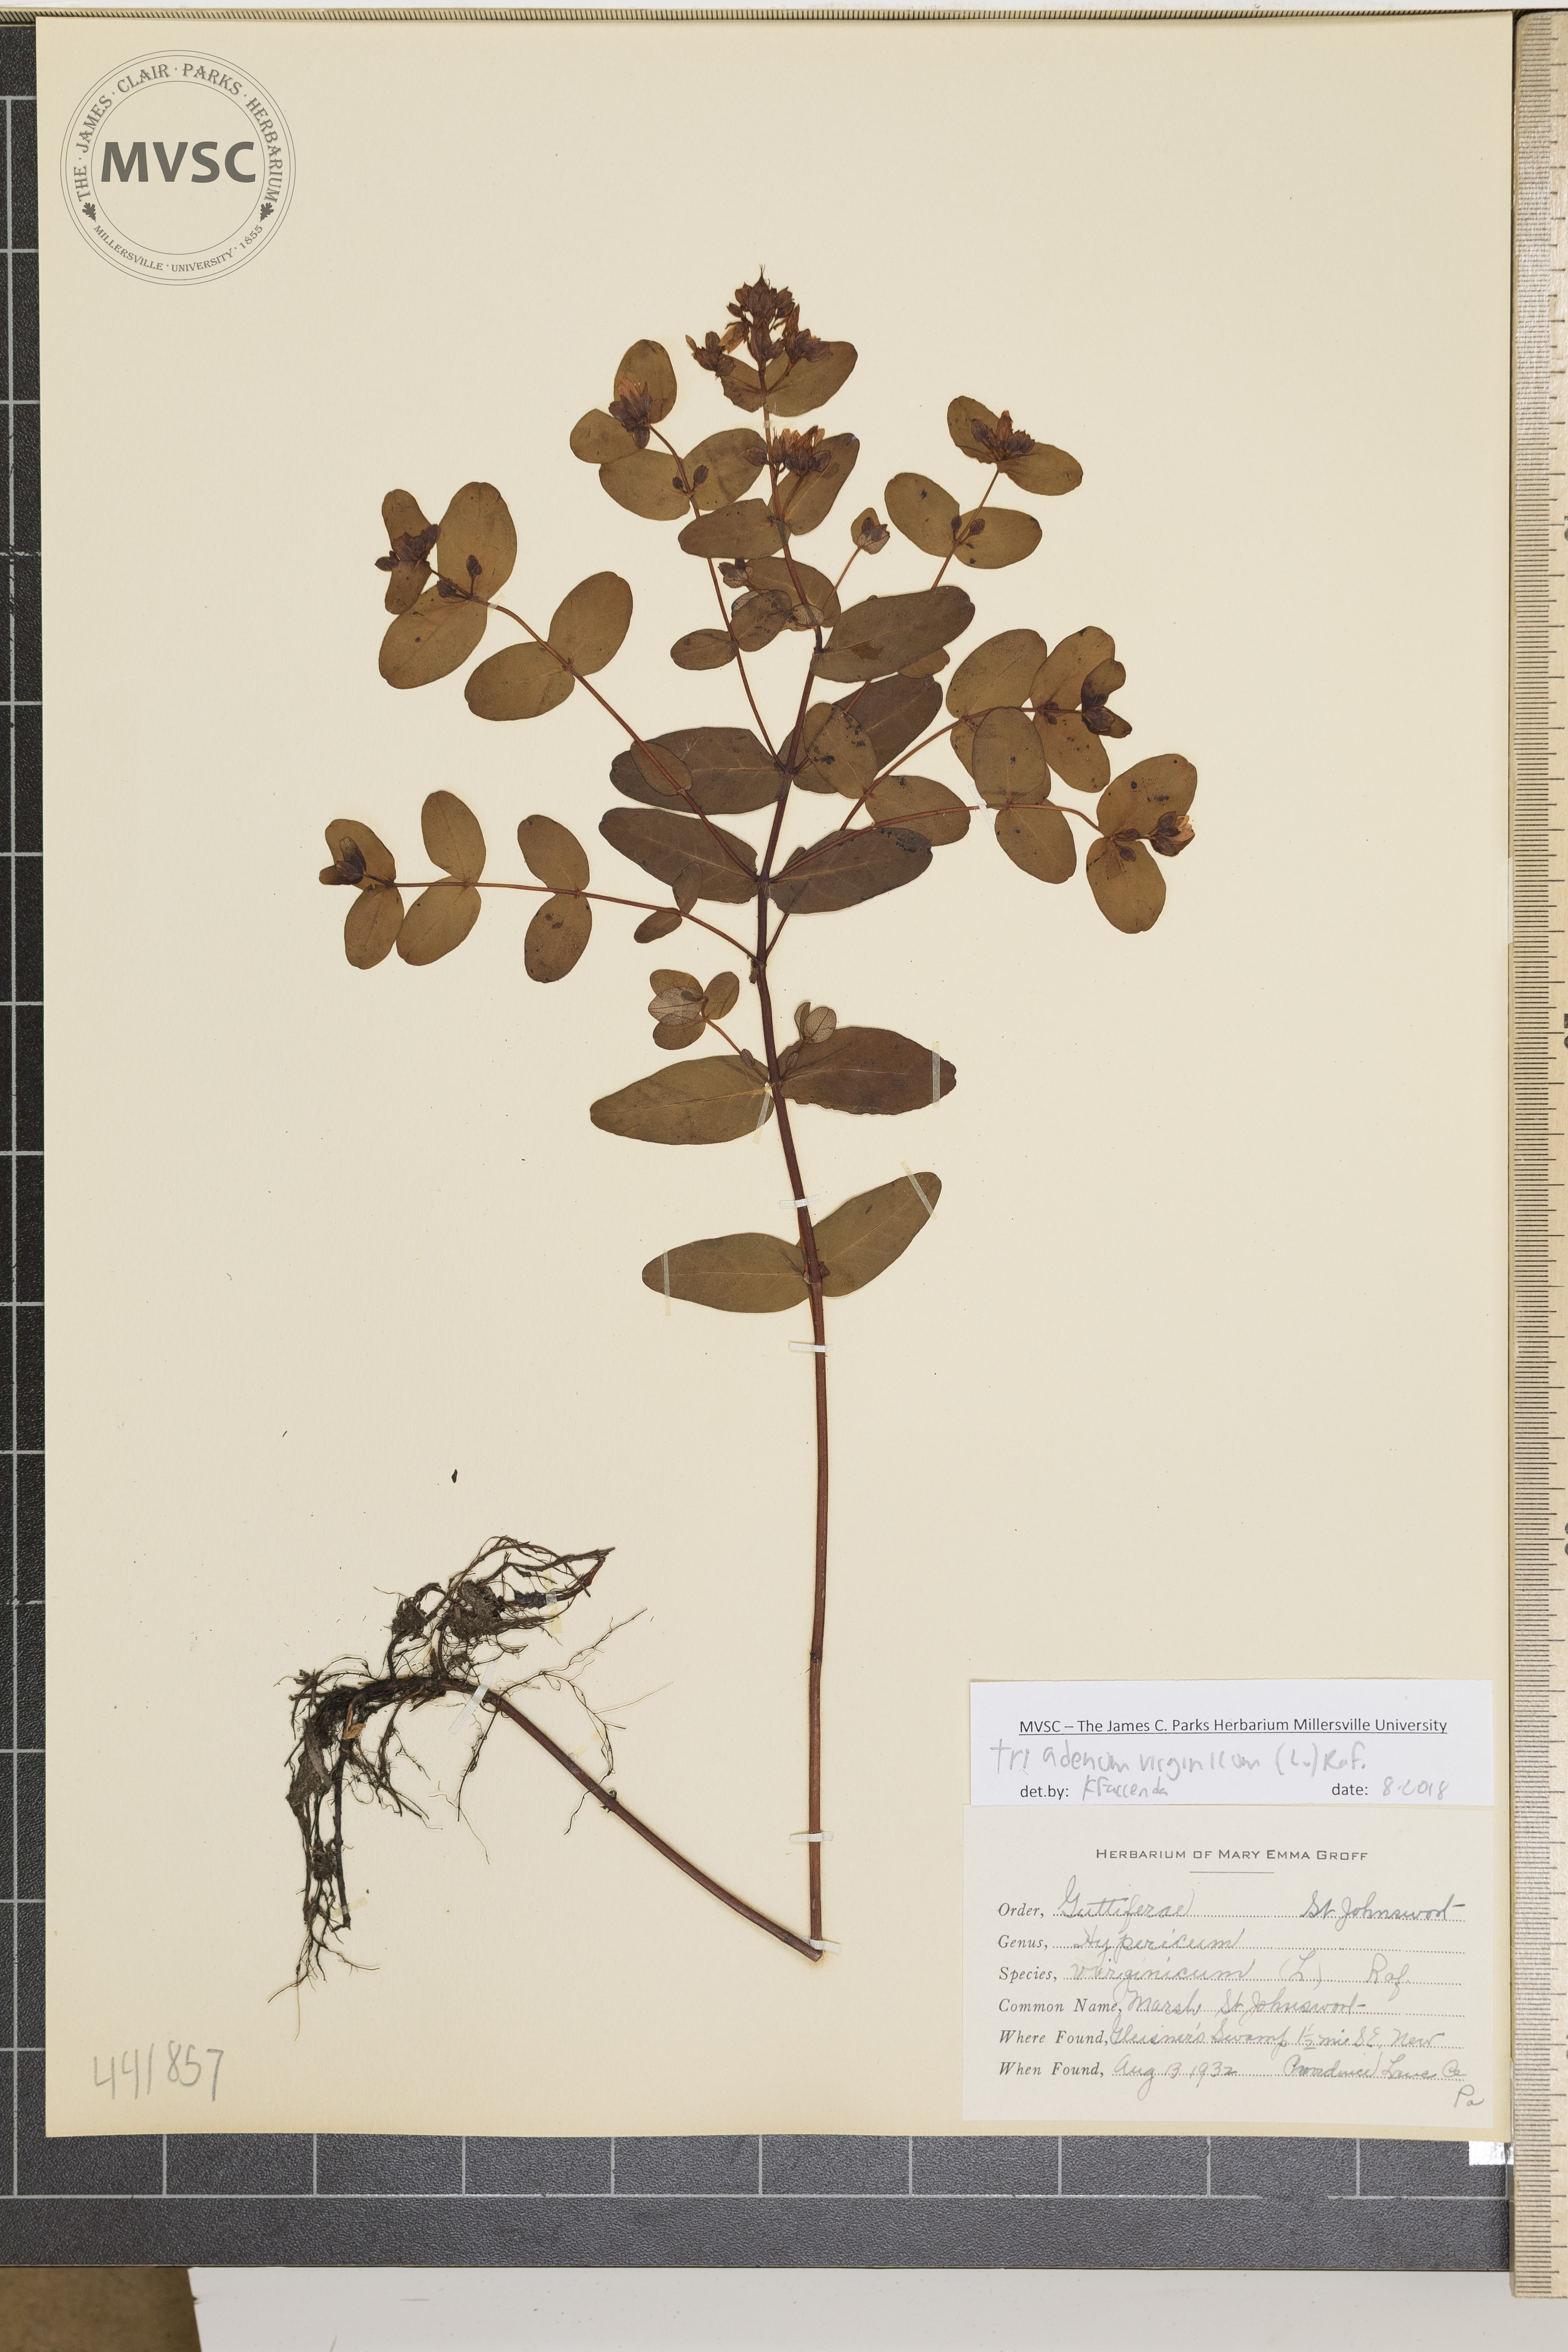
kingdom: Plantae
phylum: Tracheophyta
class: Magnoliopsida
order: Malpighiales
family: Hypericaceae
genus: Triadenum
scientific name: Triadenum virginicum
